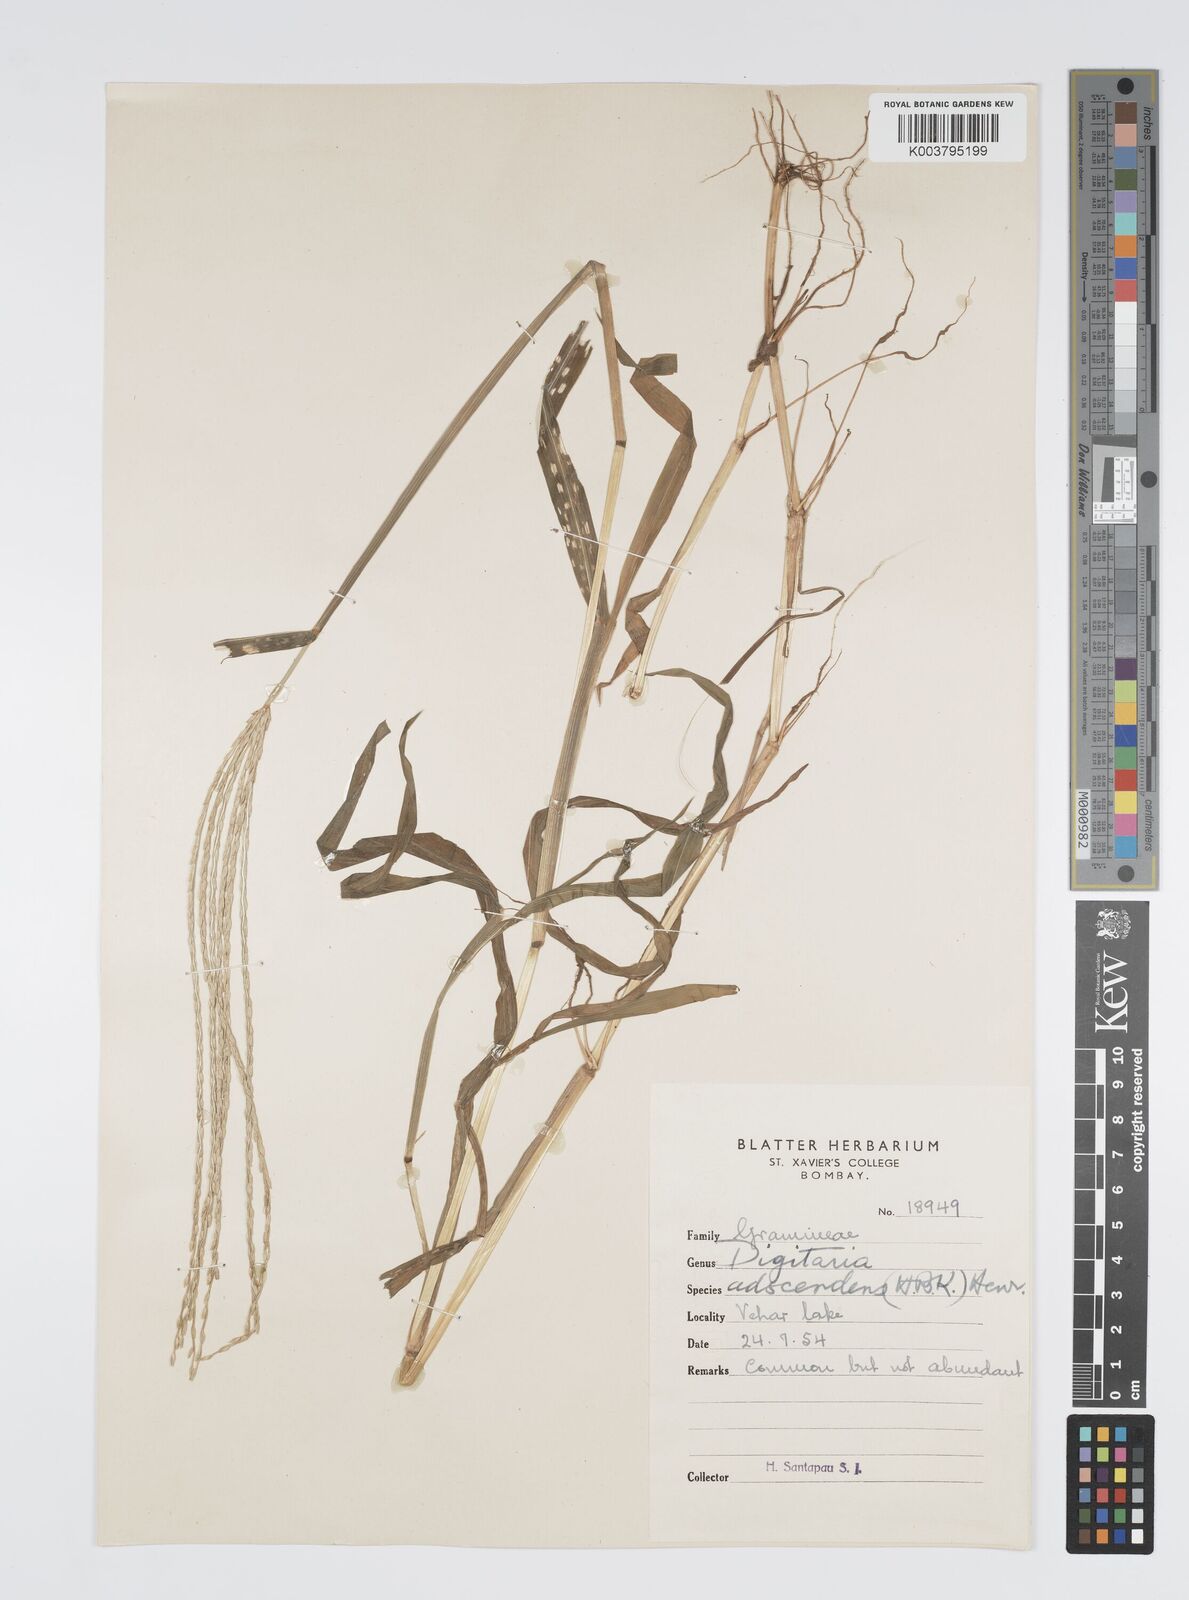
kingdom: Plantae
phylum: Tracheophyta
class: Liliopsida
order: Poales
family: Poaceae
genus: Digitaria
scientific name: Digitaria ciliaris
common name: Tropical finger-grass
